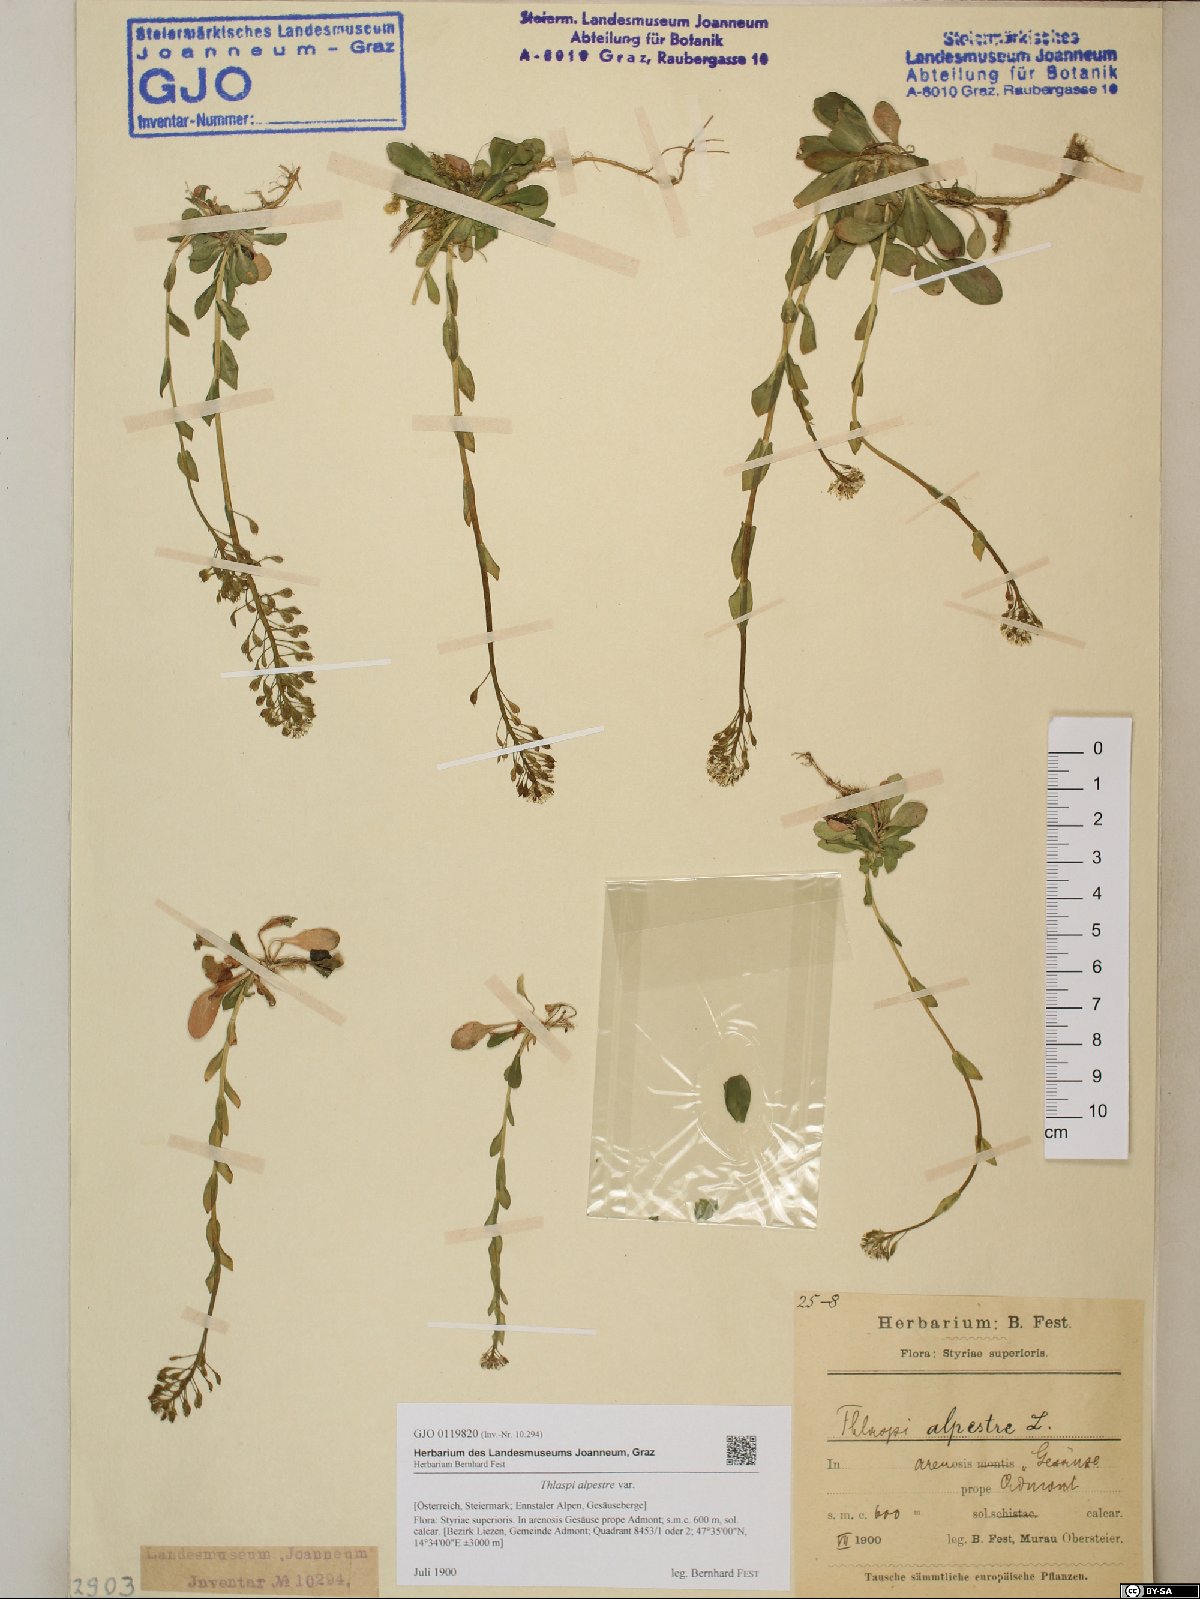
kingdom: Plantae
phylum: Tracheophyta
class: Magnoliopsida
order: Brassicales
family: Brassicaceae
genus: Noccaea
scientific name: Noccaea caerulescens
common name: Alpine pennycress
